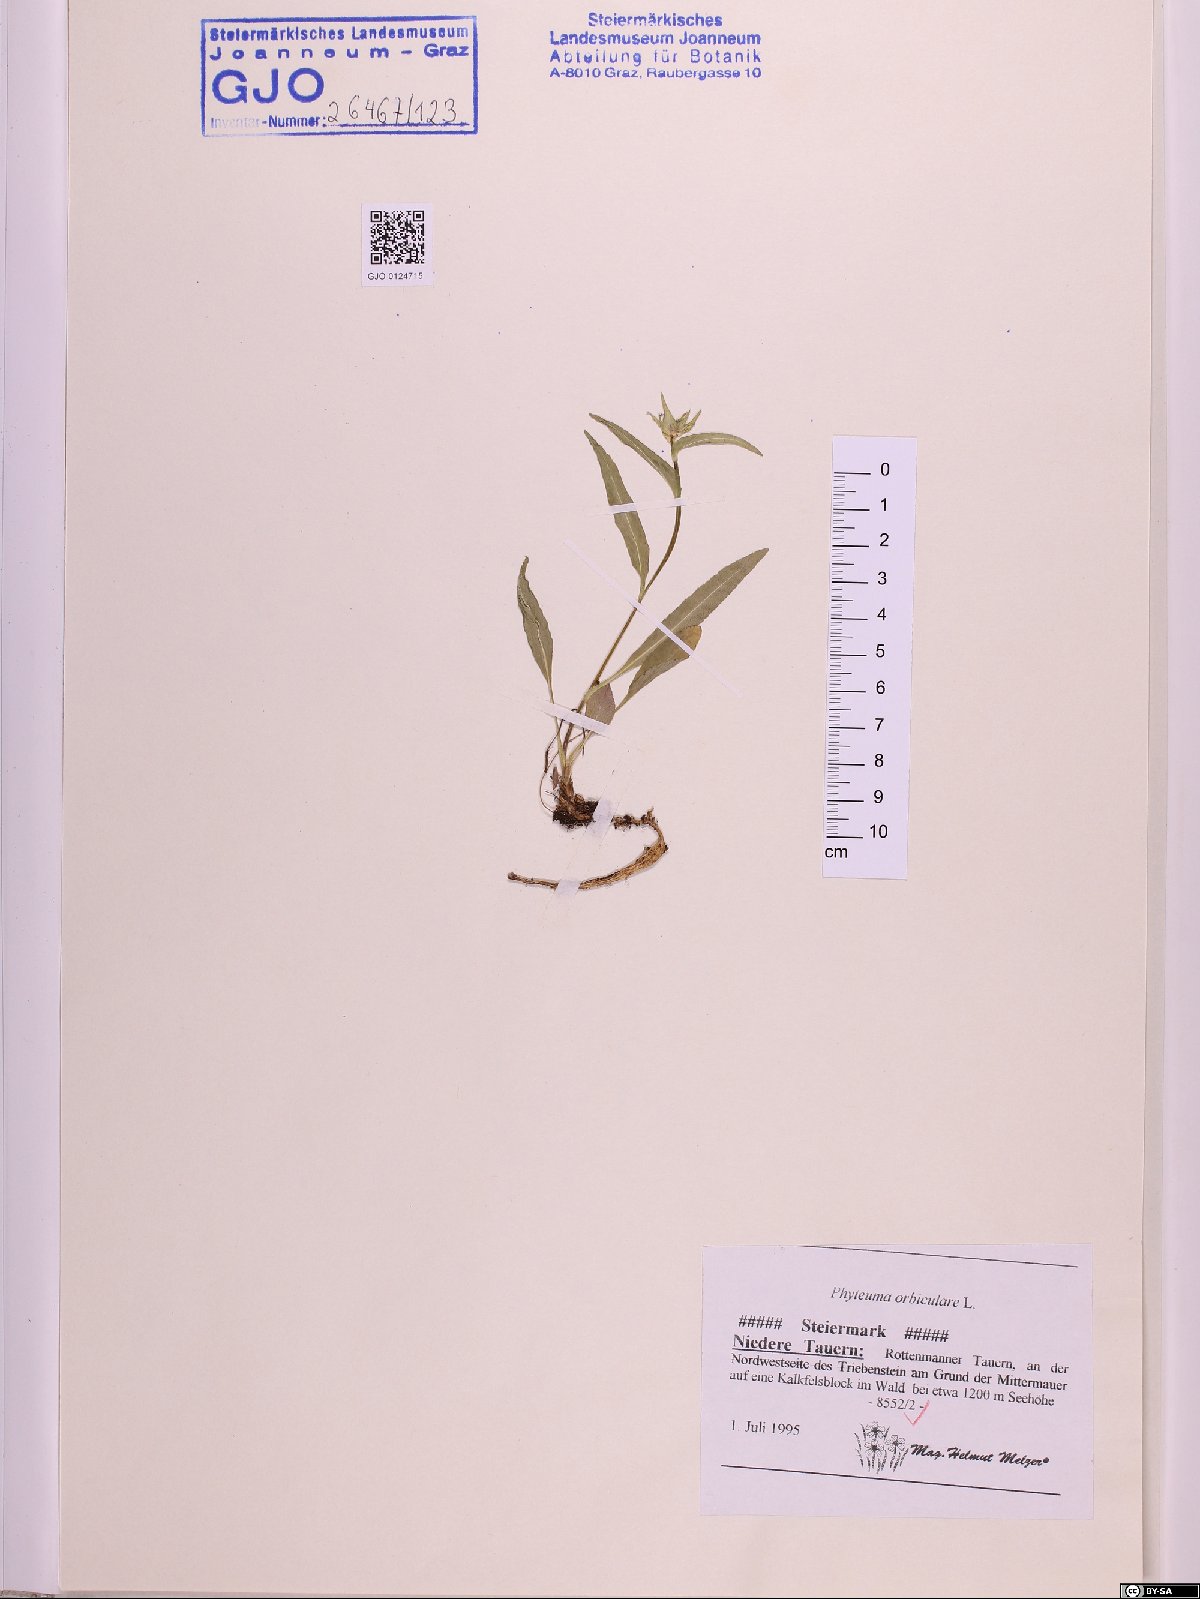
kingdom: Plantae
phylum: Tracheophyta
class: Magnoliopsida
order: Asterales
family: Campanulaceae
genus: Phyteuma
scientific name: Phyteuma orbiculare
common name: Round-headed rampion
